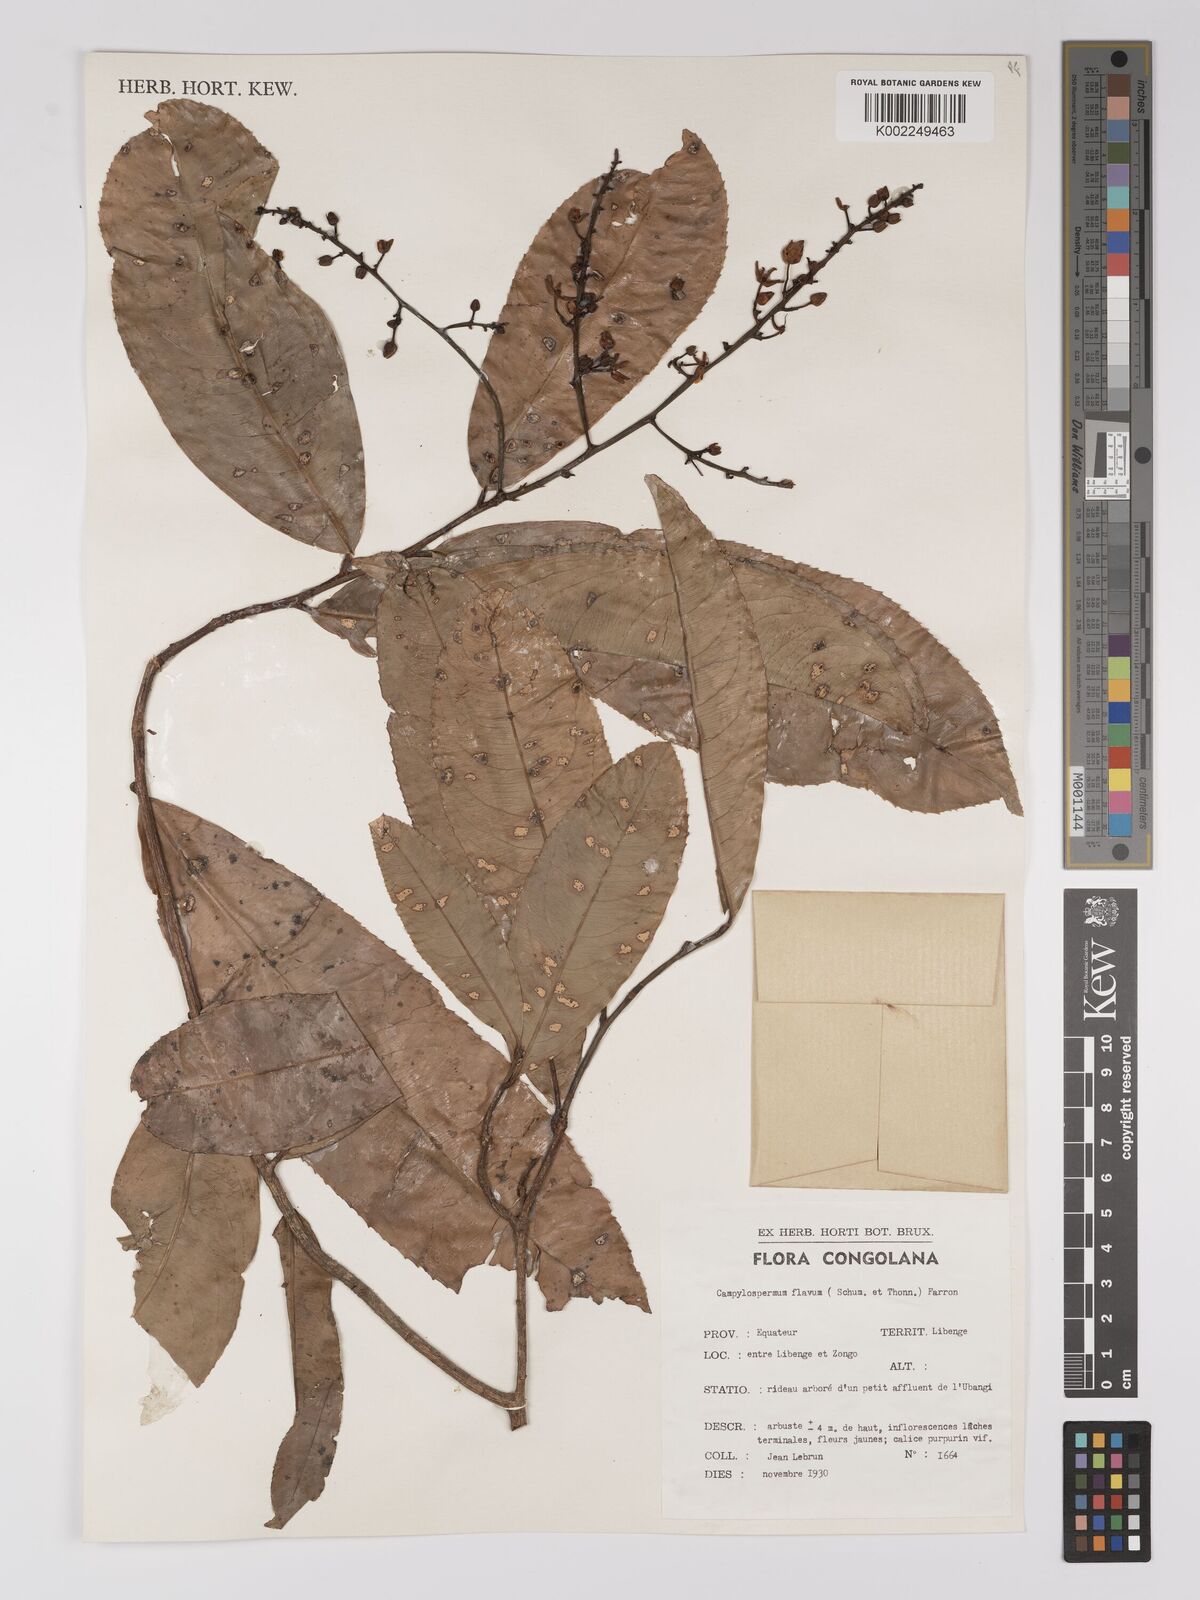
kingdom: Plantae
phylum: Tracheophyta
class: Magnoliopsida
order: Malpighiales
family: Ochnaceae
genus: Campylospermum
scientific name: Campylospermum flavum
